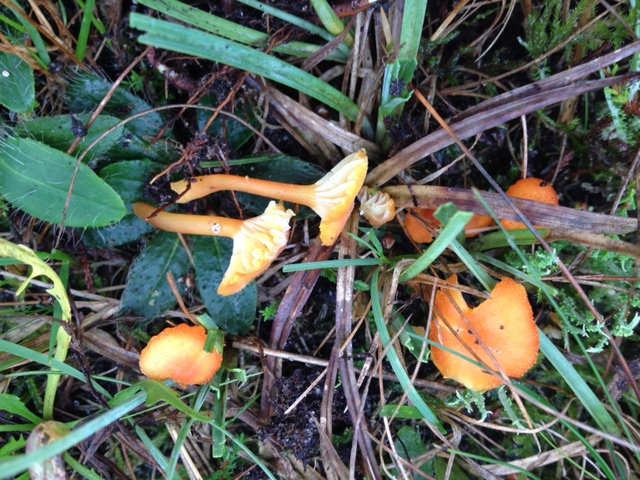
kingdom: Fungi
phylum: Basidiomycota
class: Agaricomycetes
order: Agaricales
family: Hygrophoraceae
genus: Hygrocybe
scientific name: Hygrocybe cantharellus
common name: kantarel-vokshat
